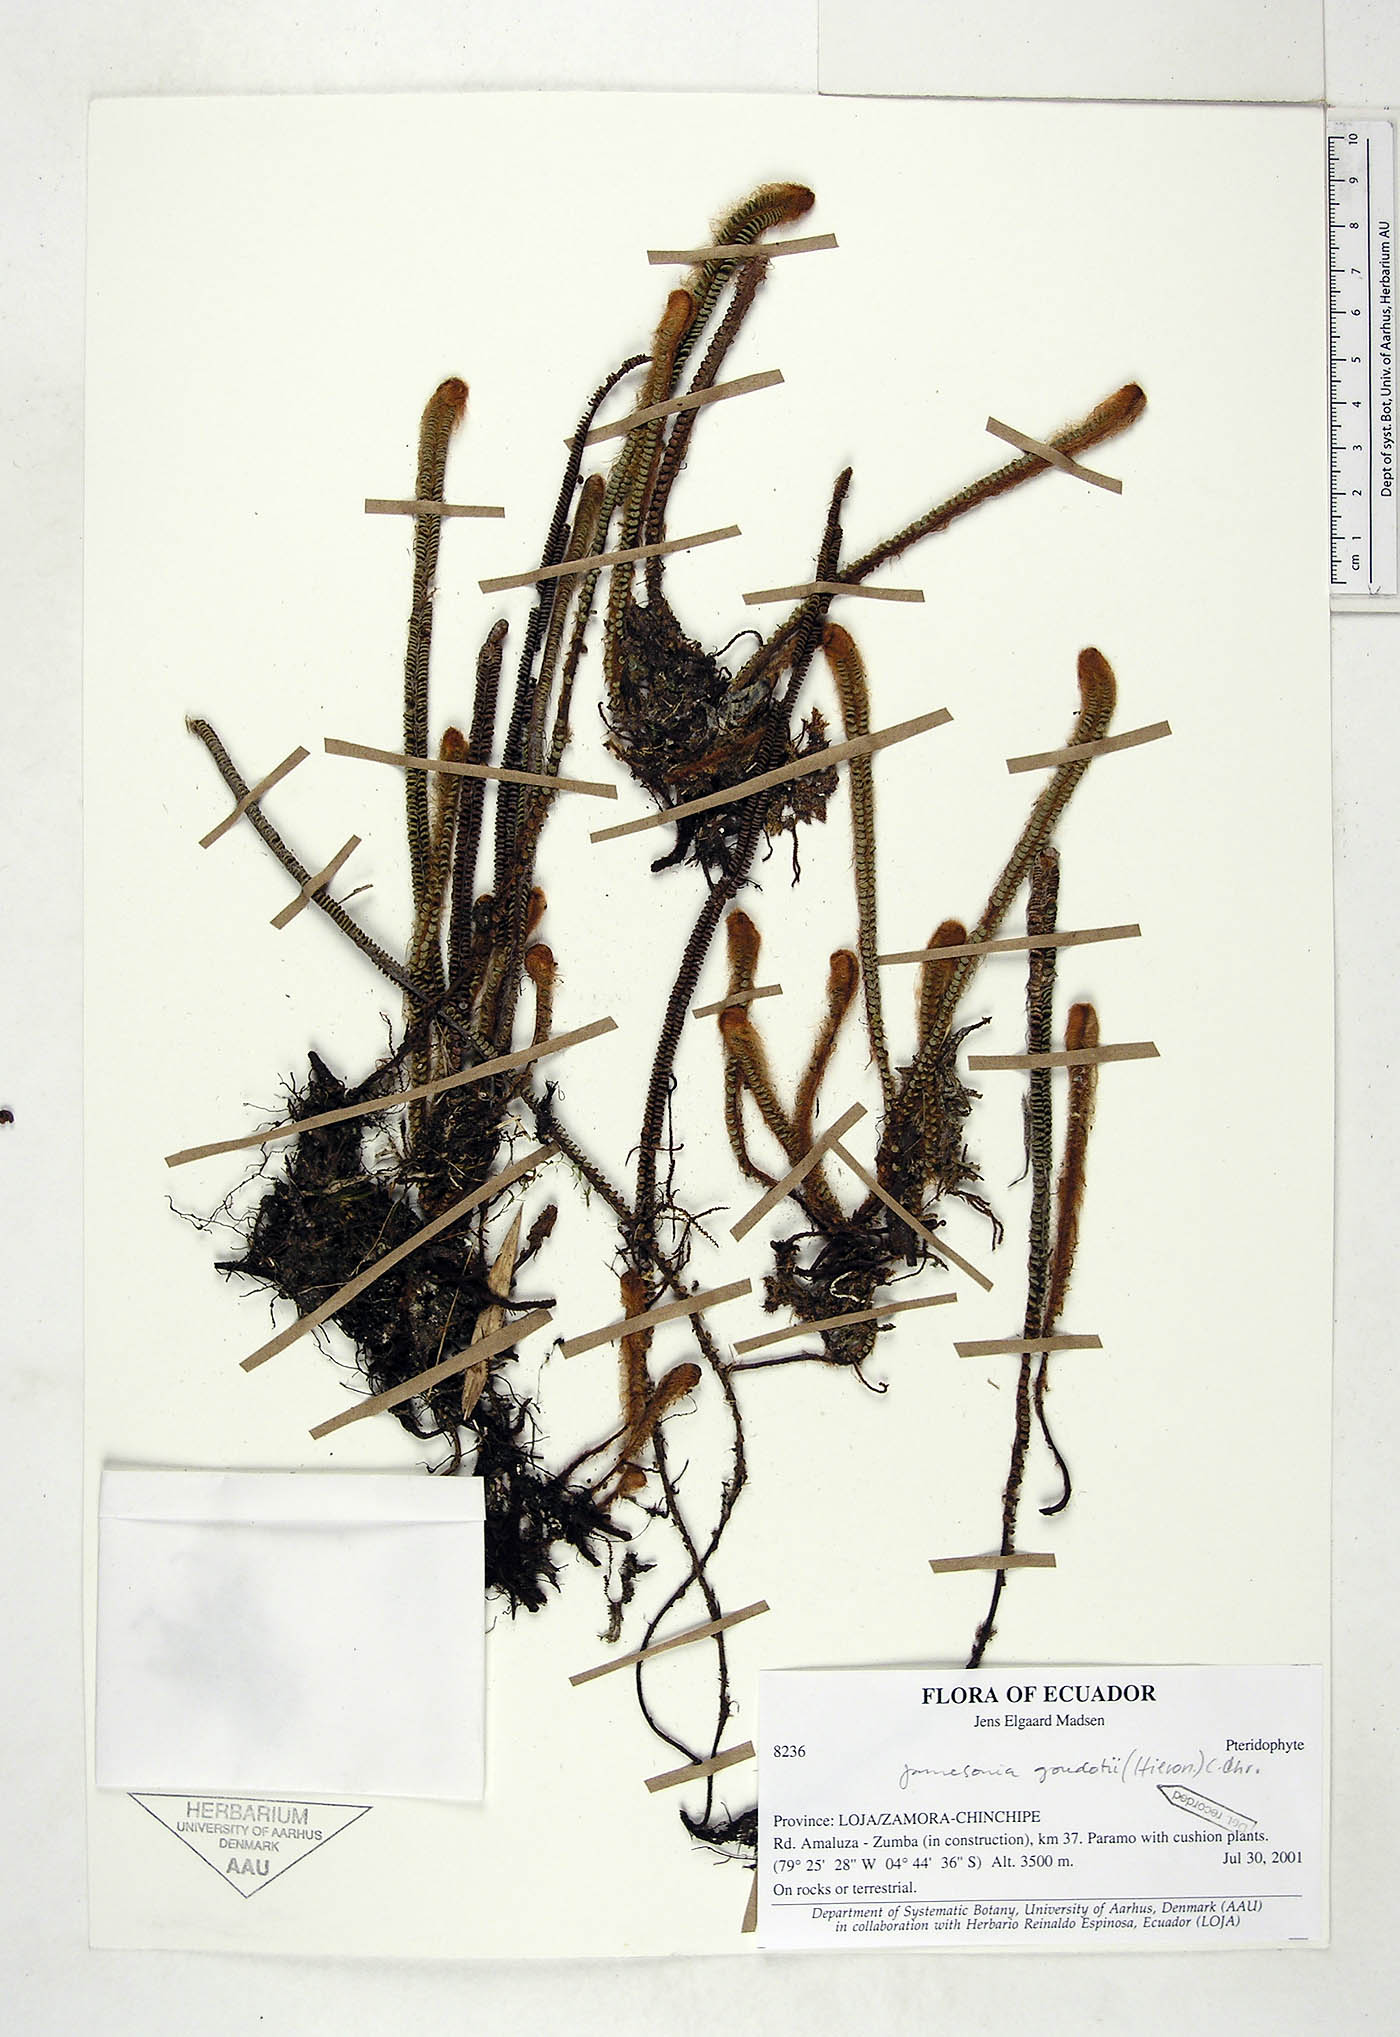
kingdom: Plantae
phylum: Tracheophyta
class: Polypodiopsida
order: Polypodiales
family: Pteridaceae
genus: Jamesonia
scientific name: Jamesonia goudotii
